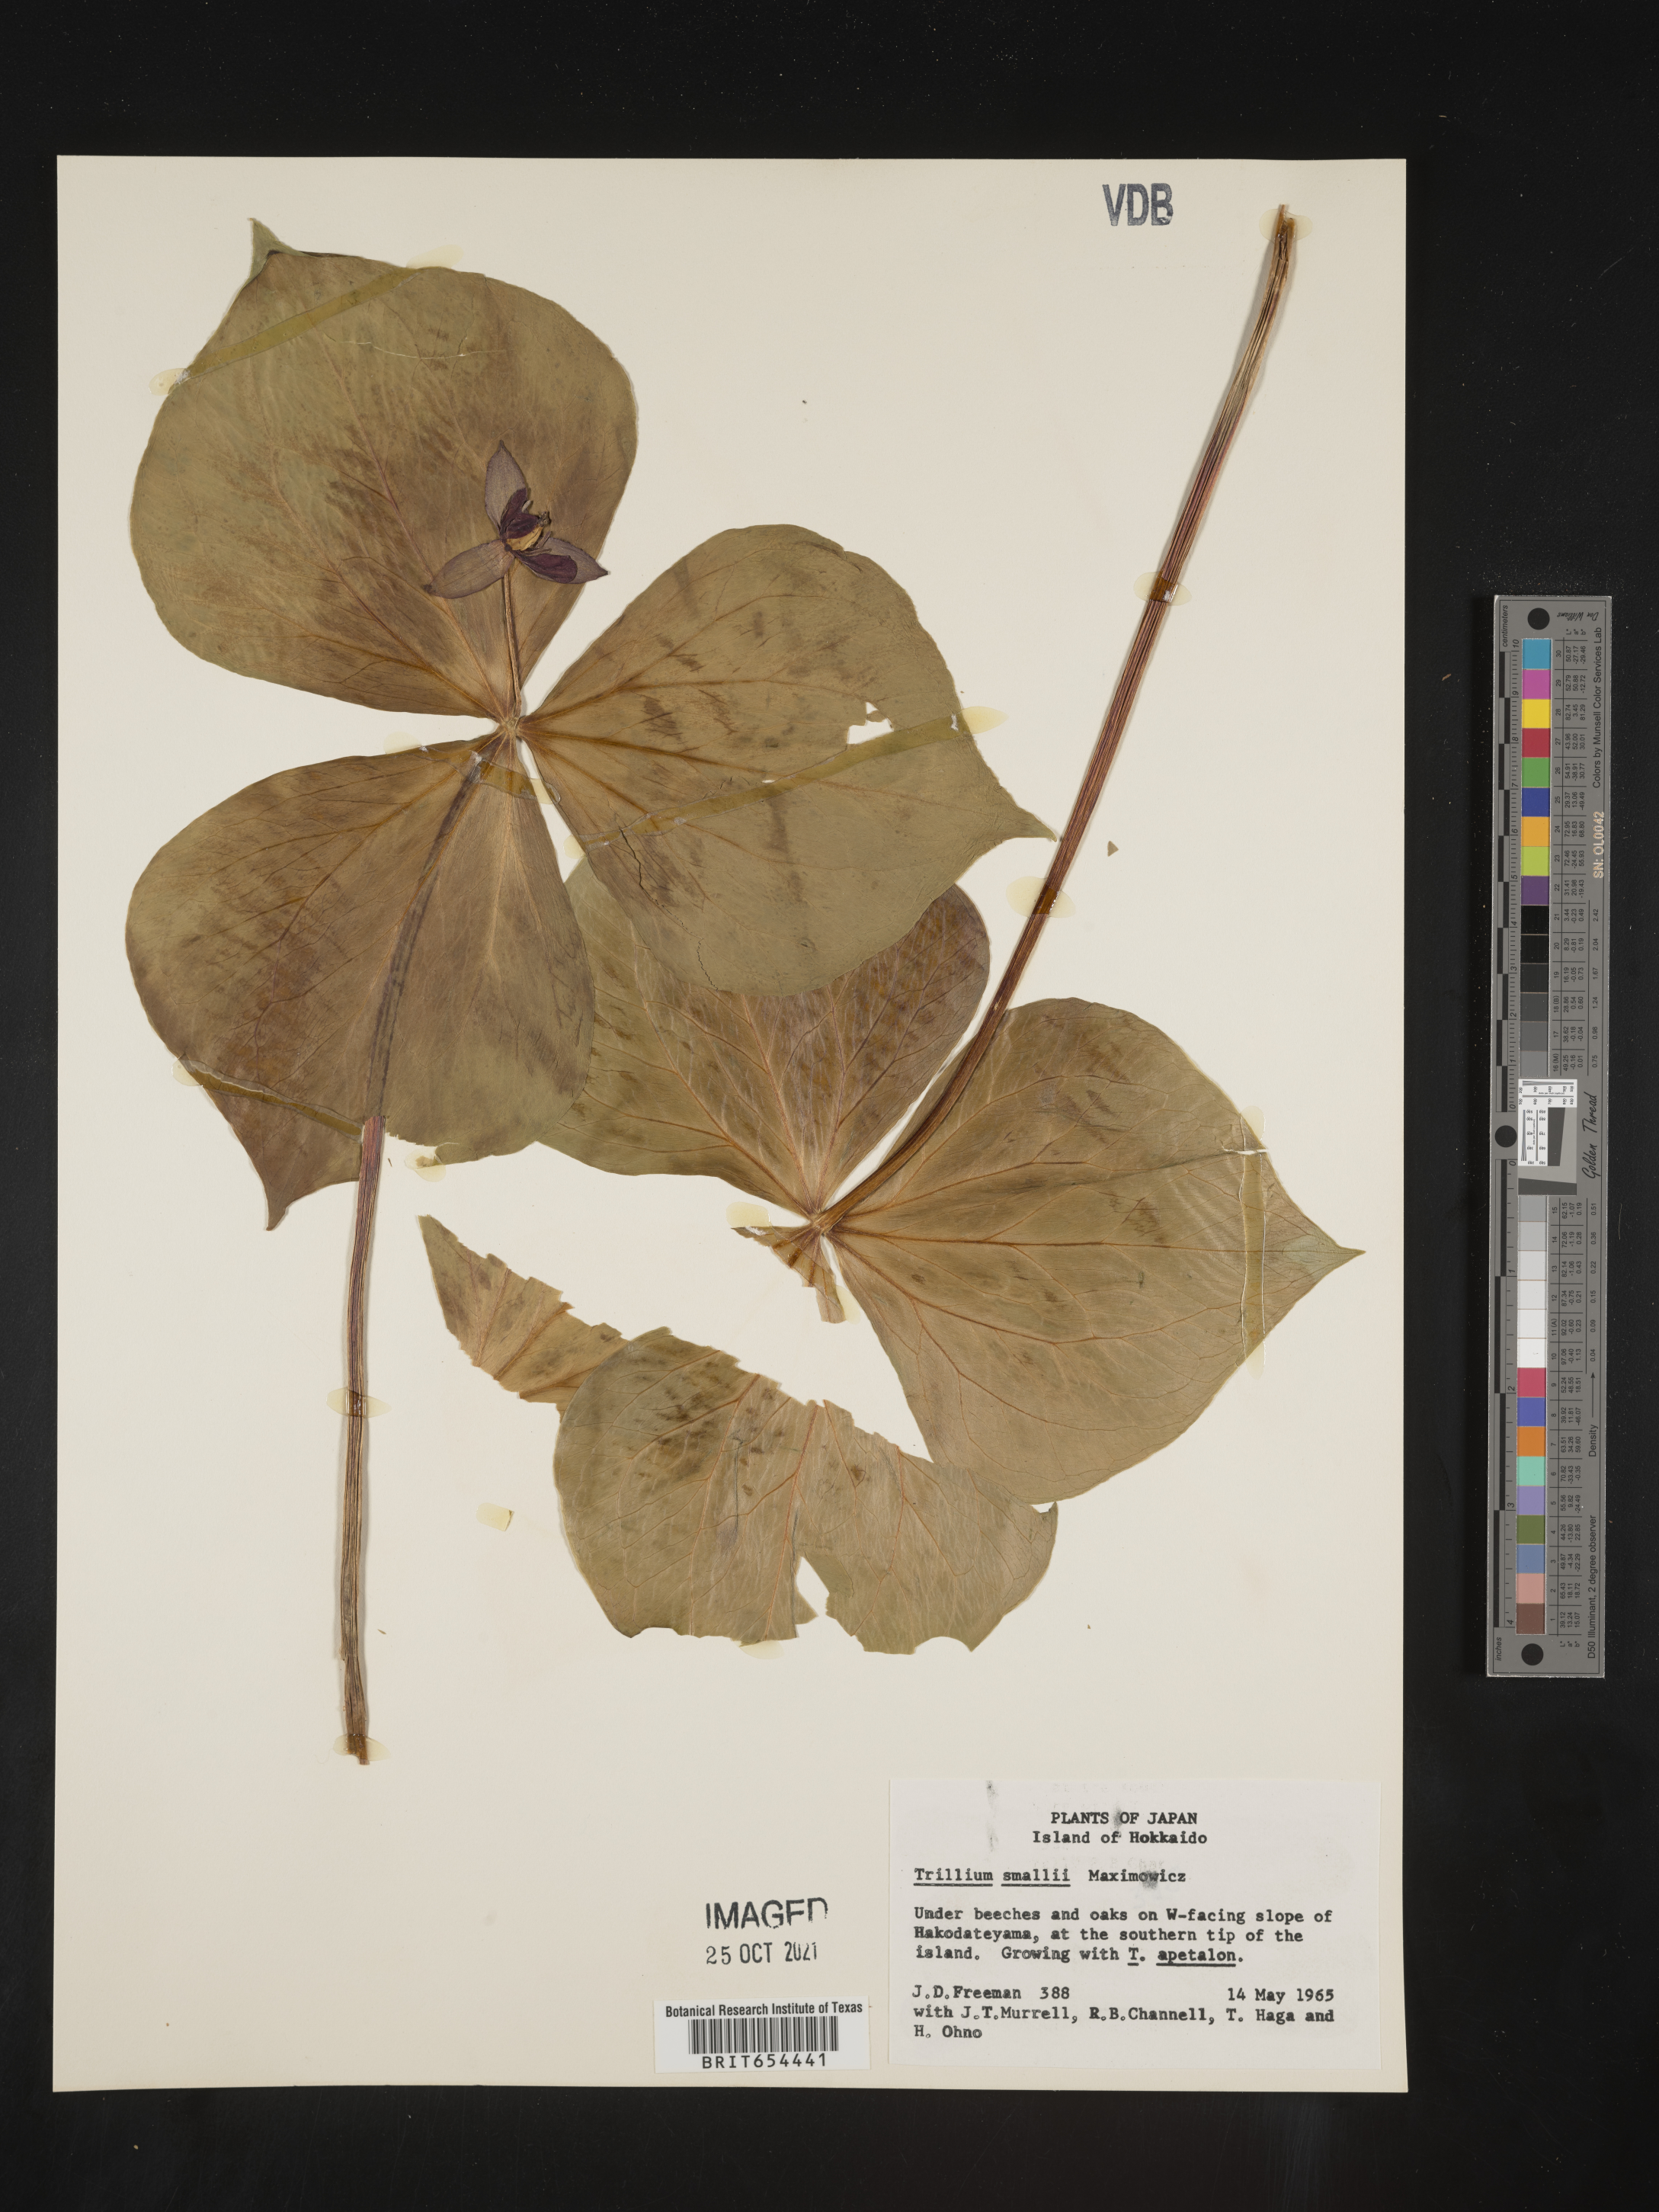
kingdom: Plantae
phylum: Tracheophyta
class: Liliopsida
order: Liliales
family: Melanthiaceae
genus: Trillium
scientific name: Trillium
